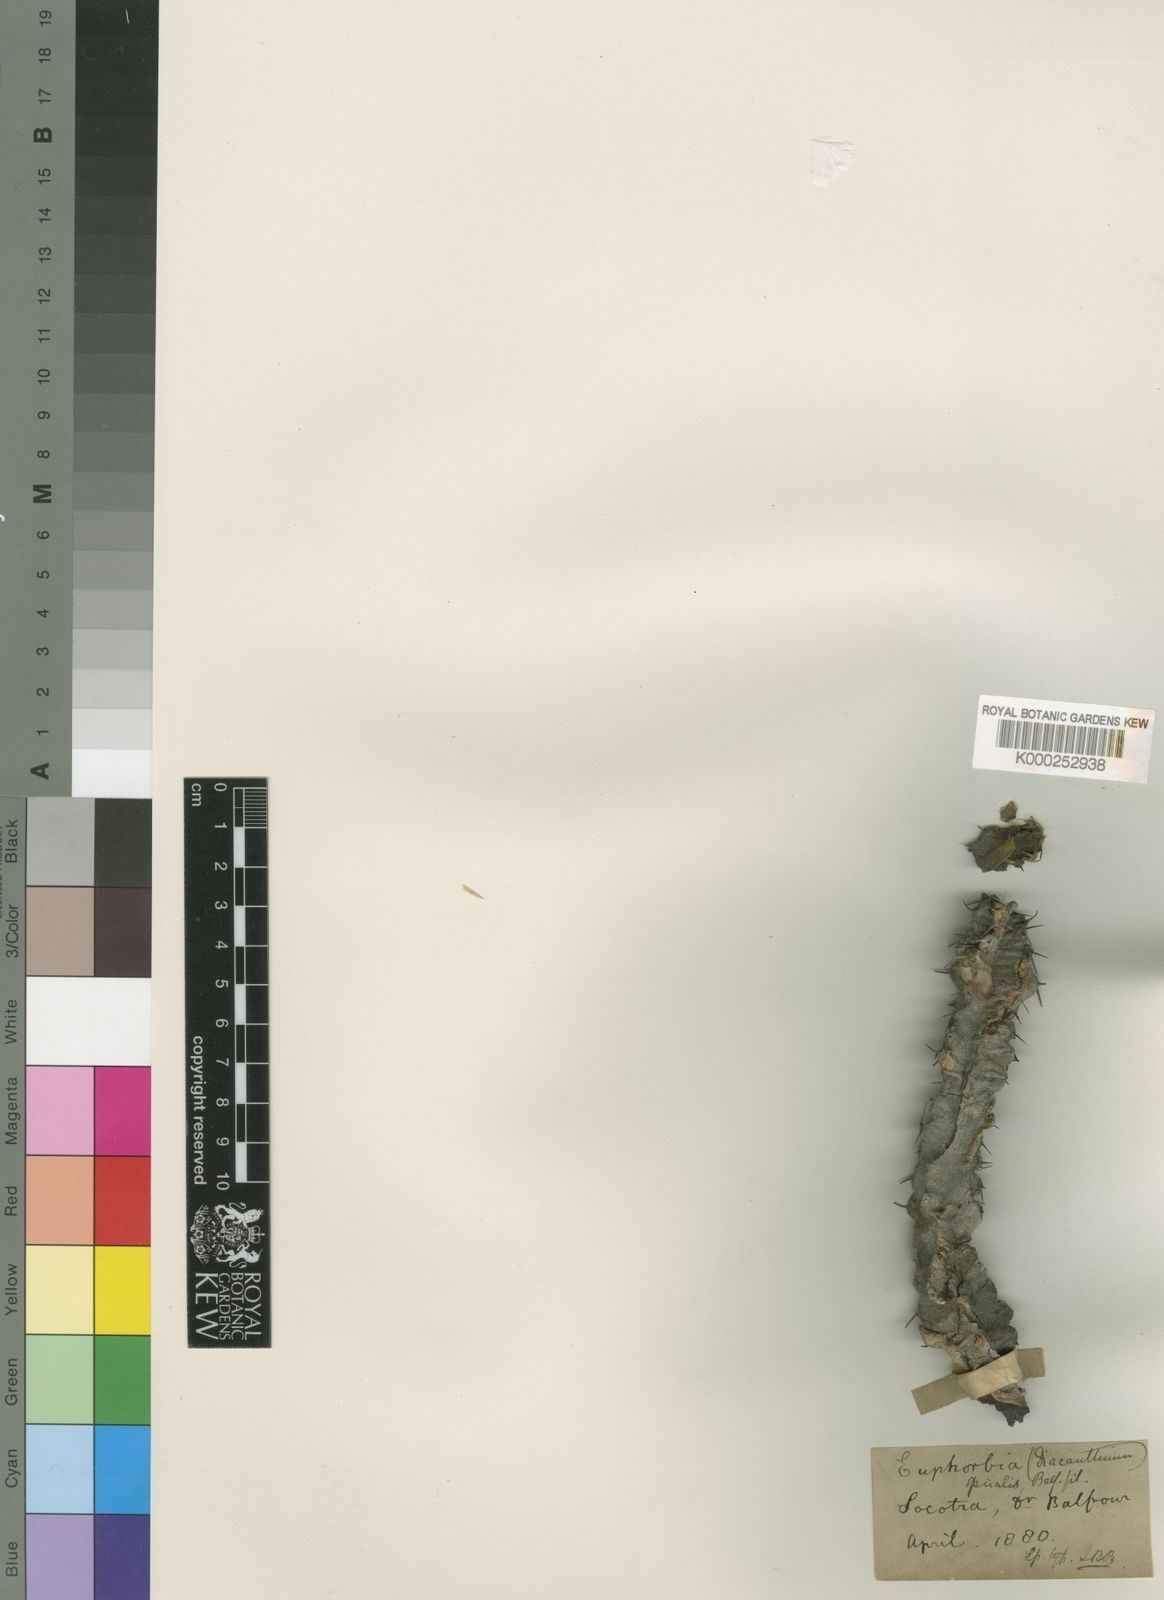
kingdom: Plantae
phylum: Tracheophyta
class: Magnoliopsida
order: Malpighiales
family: Euphorbiaceae
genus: Euphorbia
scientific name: Euphorbia spiralis
